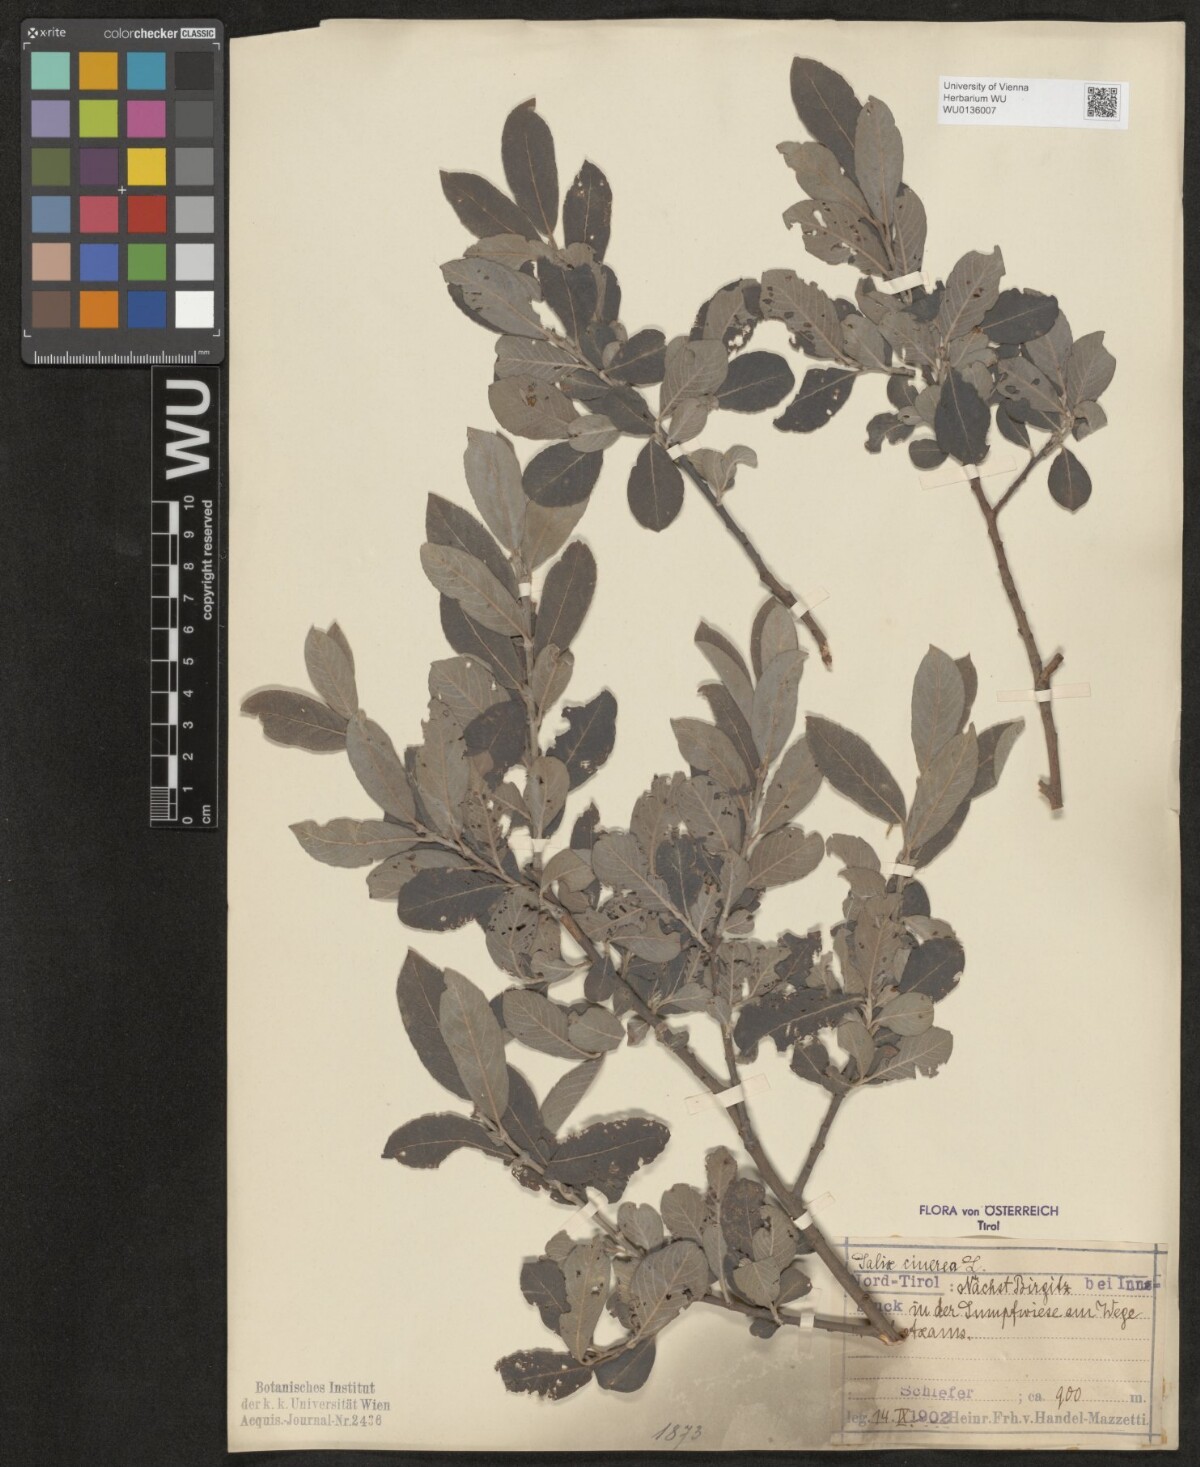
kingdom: Plantae
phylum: Tracheophyta
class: Magnoliopsida
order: Malpighiales
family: Salicaceae
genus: Salix
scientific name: Salix cinerea
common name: Common sallow
